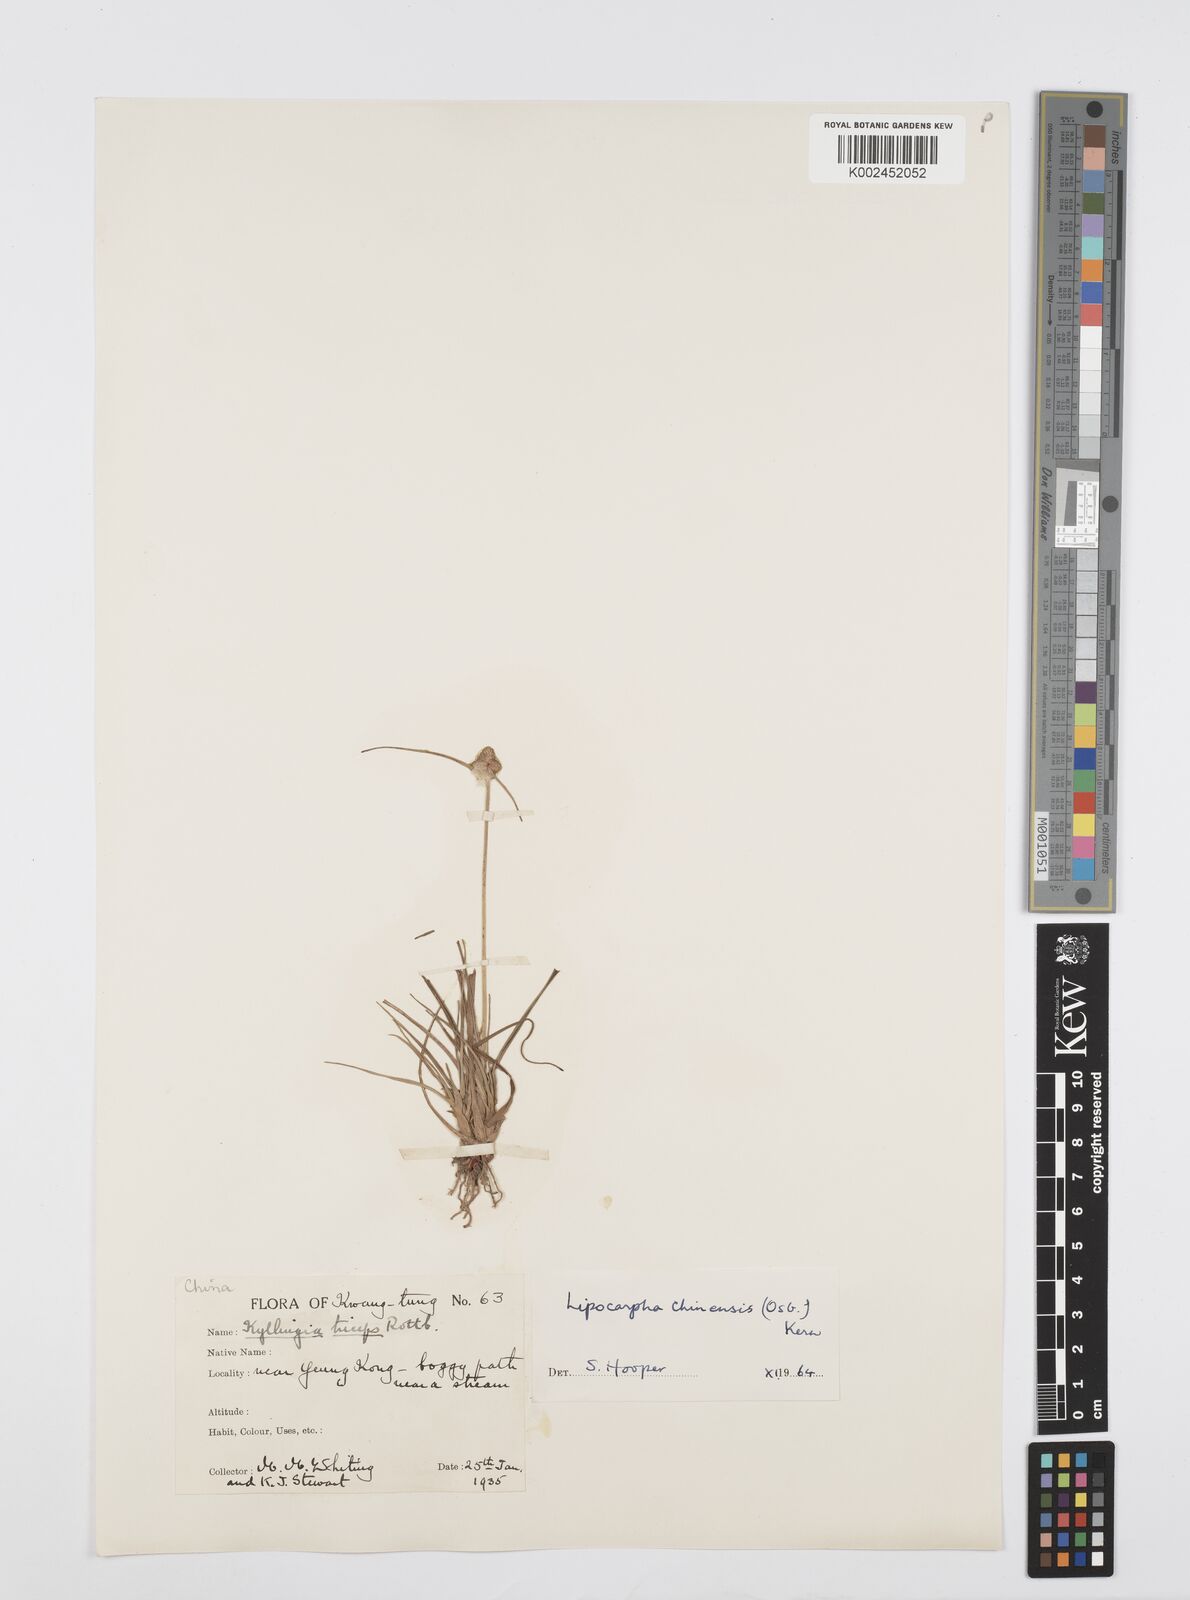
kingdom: Plantae
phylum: Tracheophyta
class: Liliopsida
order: Poales
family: Cyperaceae
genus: Cyperus
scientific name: Cyperus albescens
